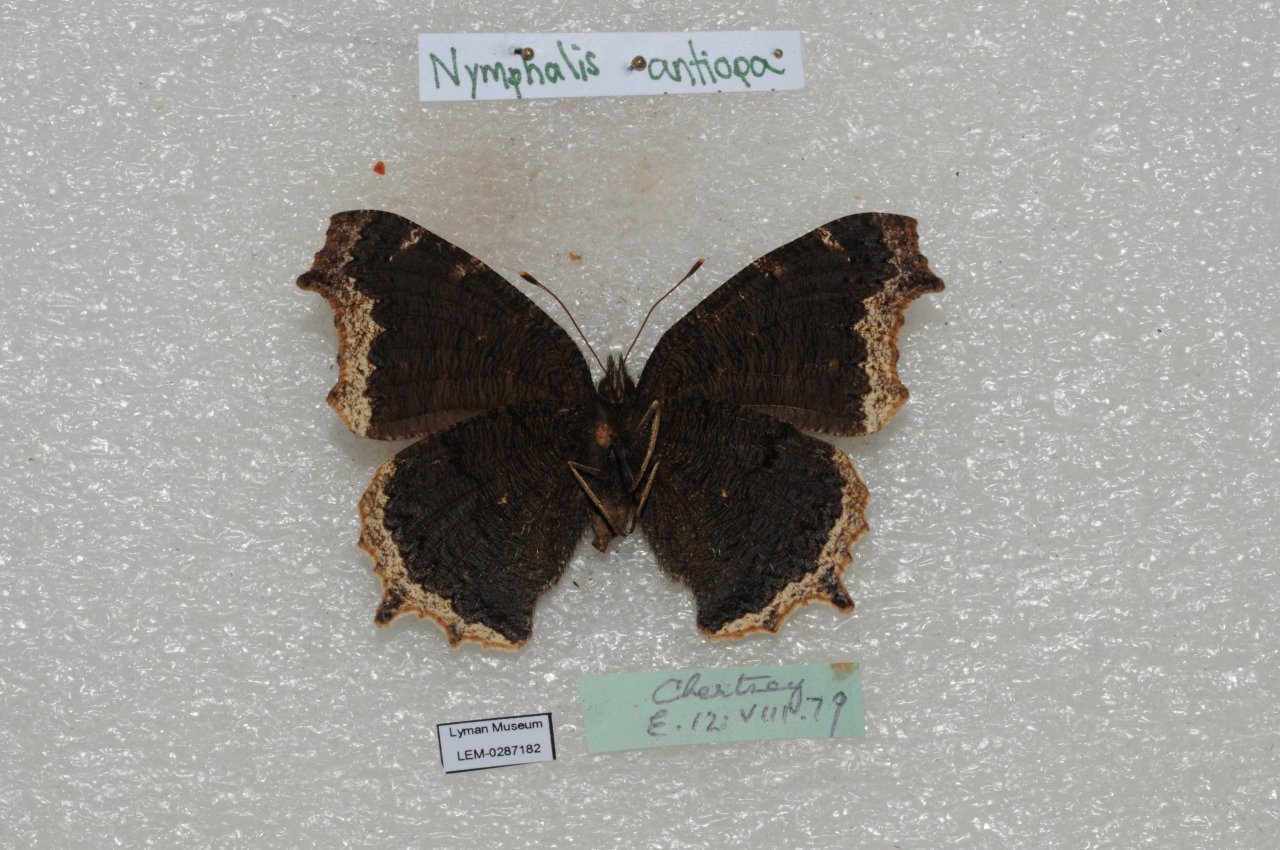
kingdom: Animalia
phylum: Arthropoda
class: Insecta
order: Lepidoptera
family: Nymphalidae
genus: Nymphalis
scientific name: Nymphalis antiopa
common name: Mourning Cloak
